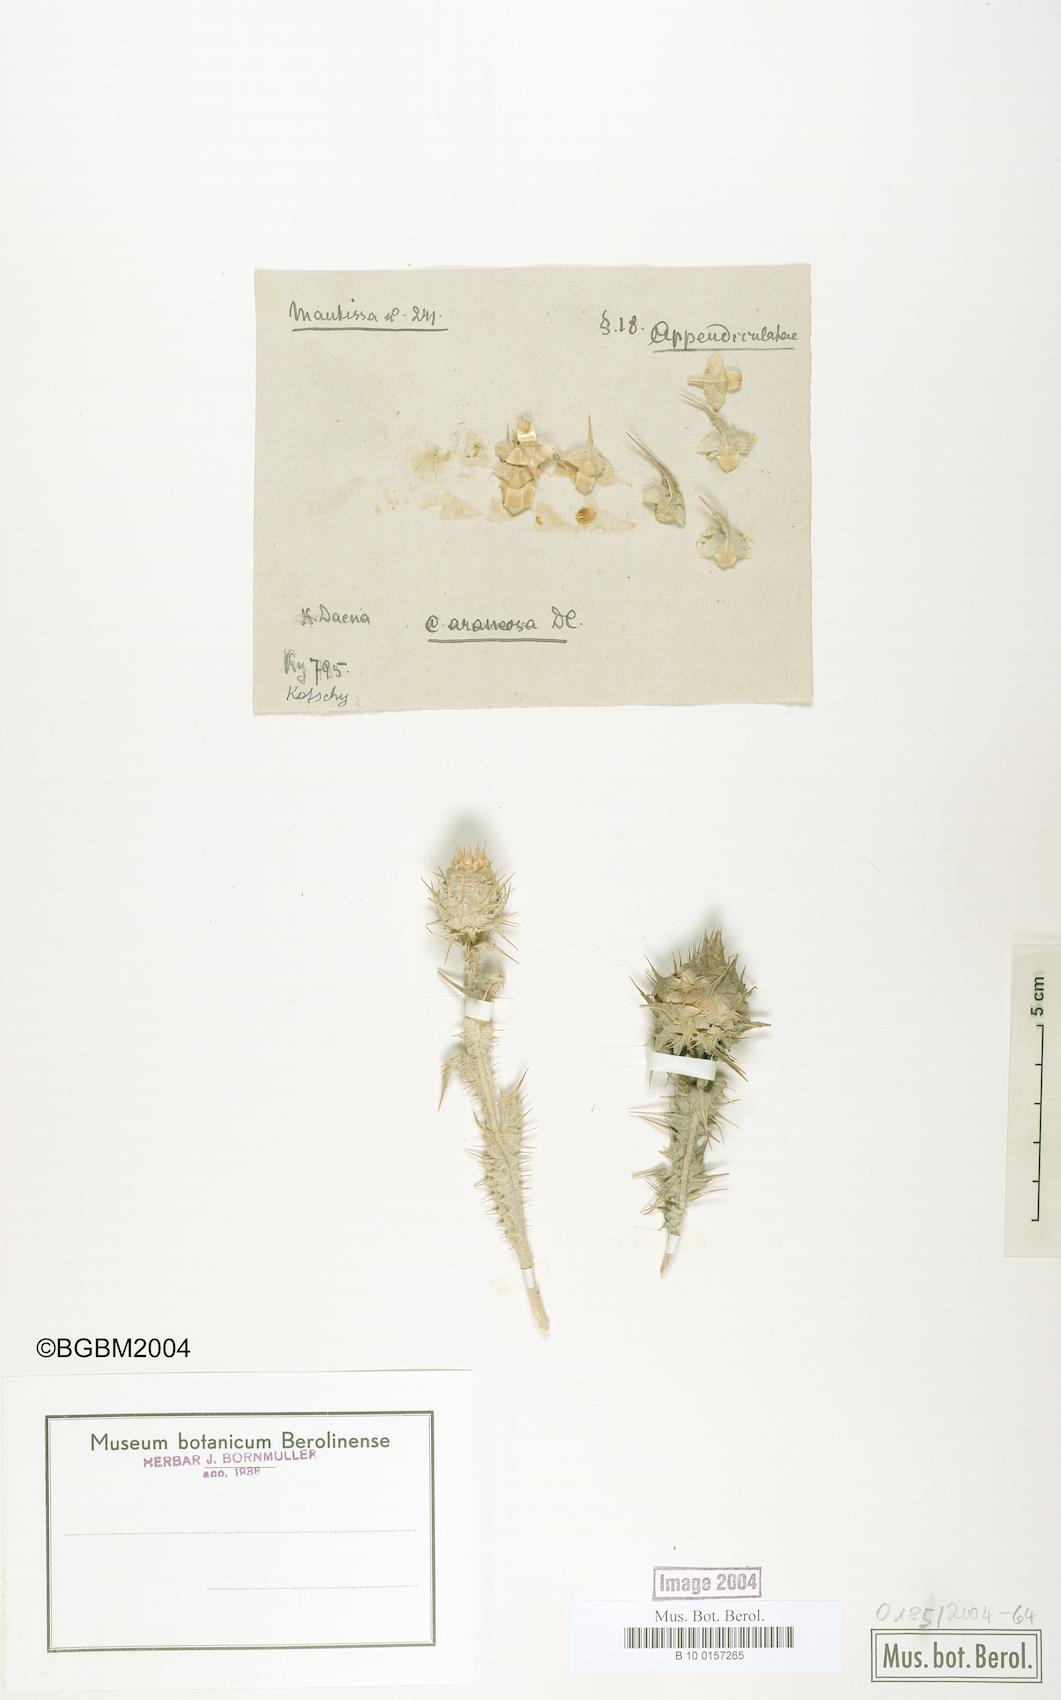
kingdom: Plantae
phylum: Tracheophyta
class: Magnoliopsida
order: Asterales
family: Asteraceae
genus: Cousinia
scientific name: Cousinia araneosa
